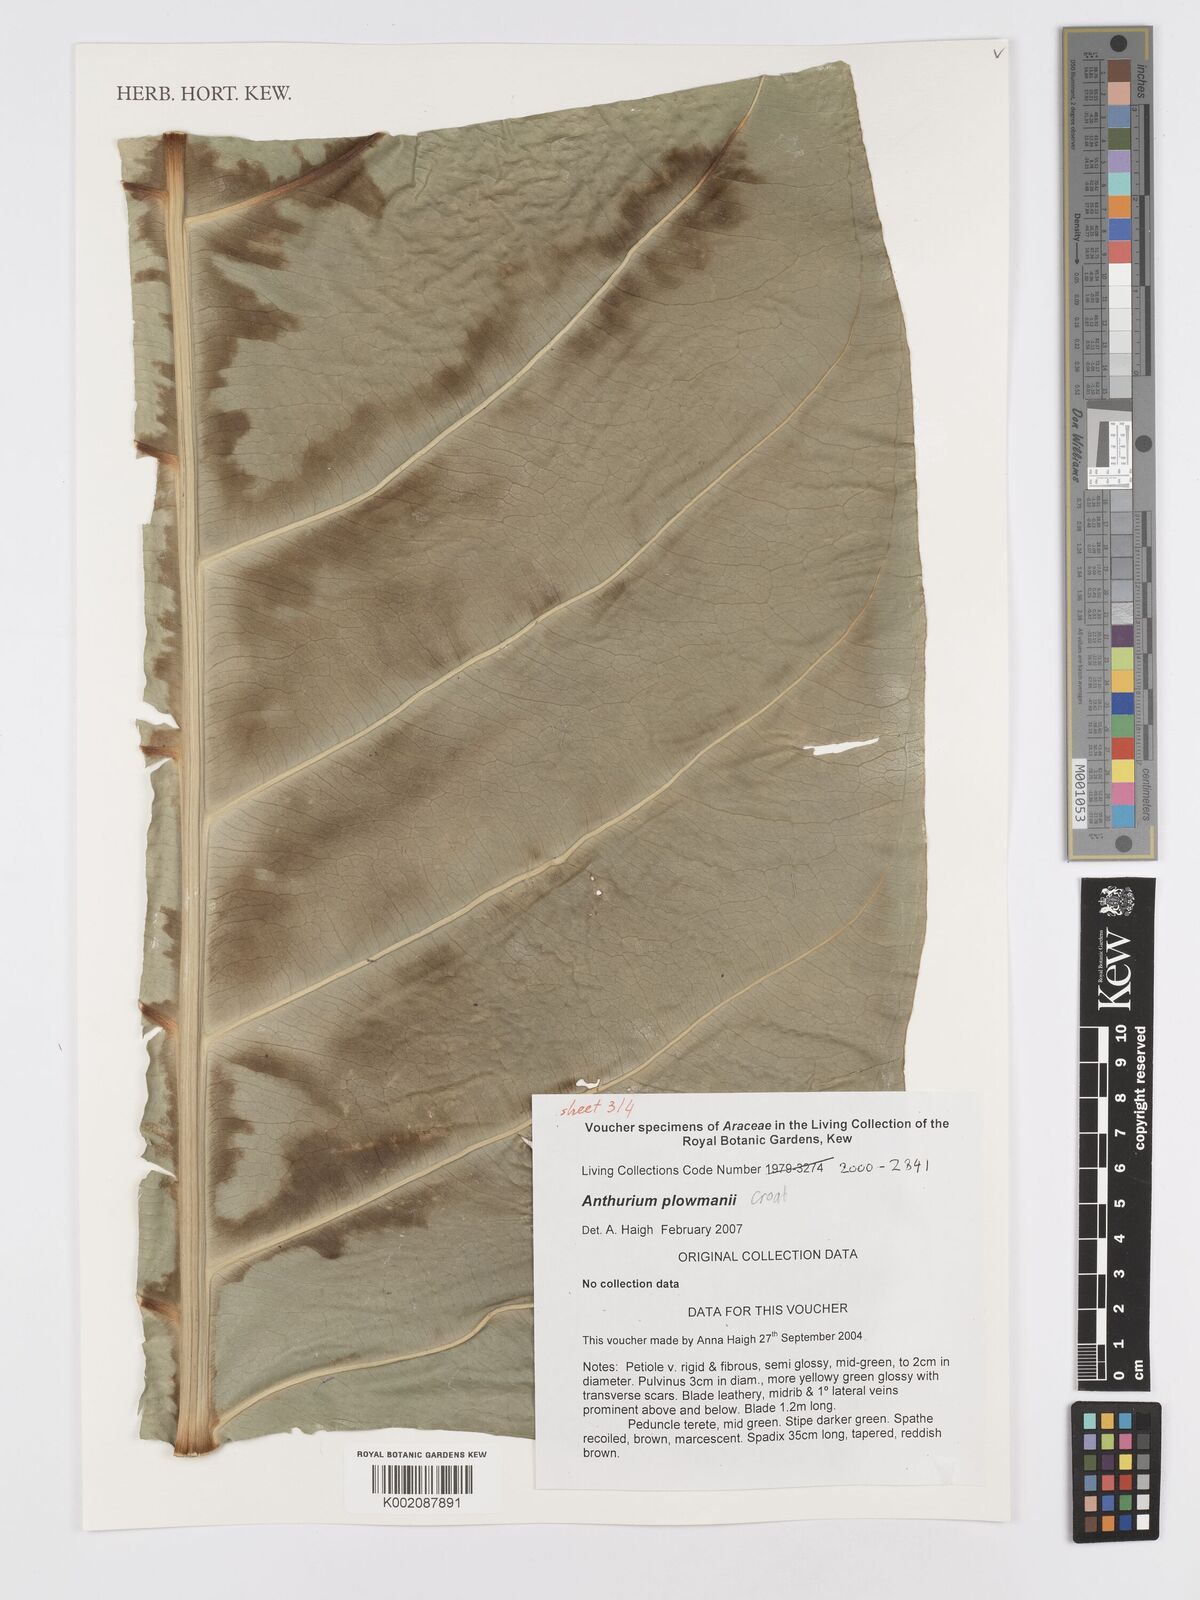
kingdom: Plantae
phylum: Tracheophyta
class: Liliopsida
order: Alismatales
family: Araceae
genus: Anthurium
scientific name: Anthurium plowmanii
